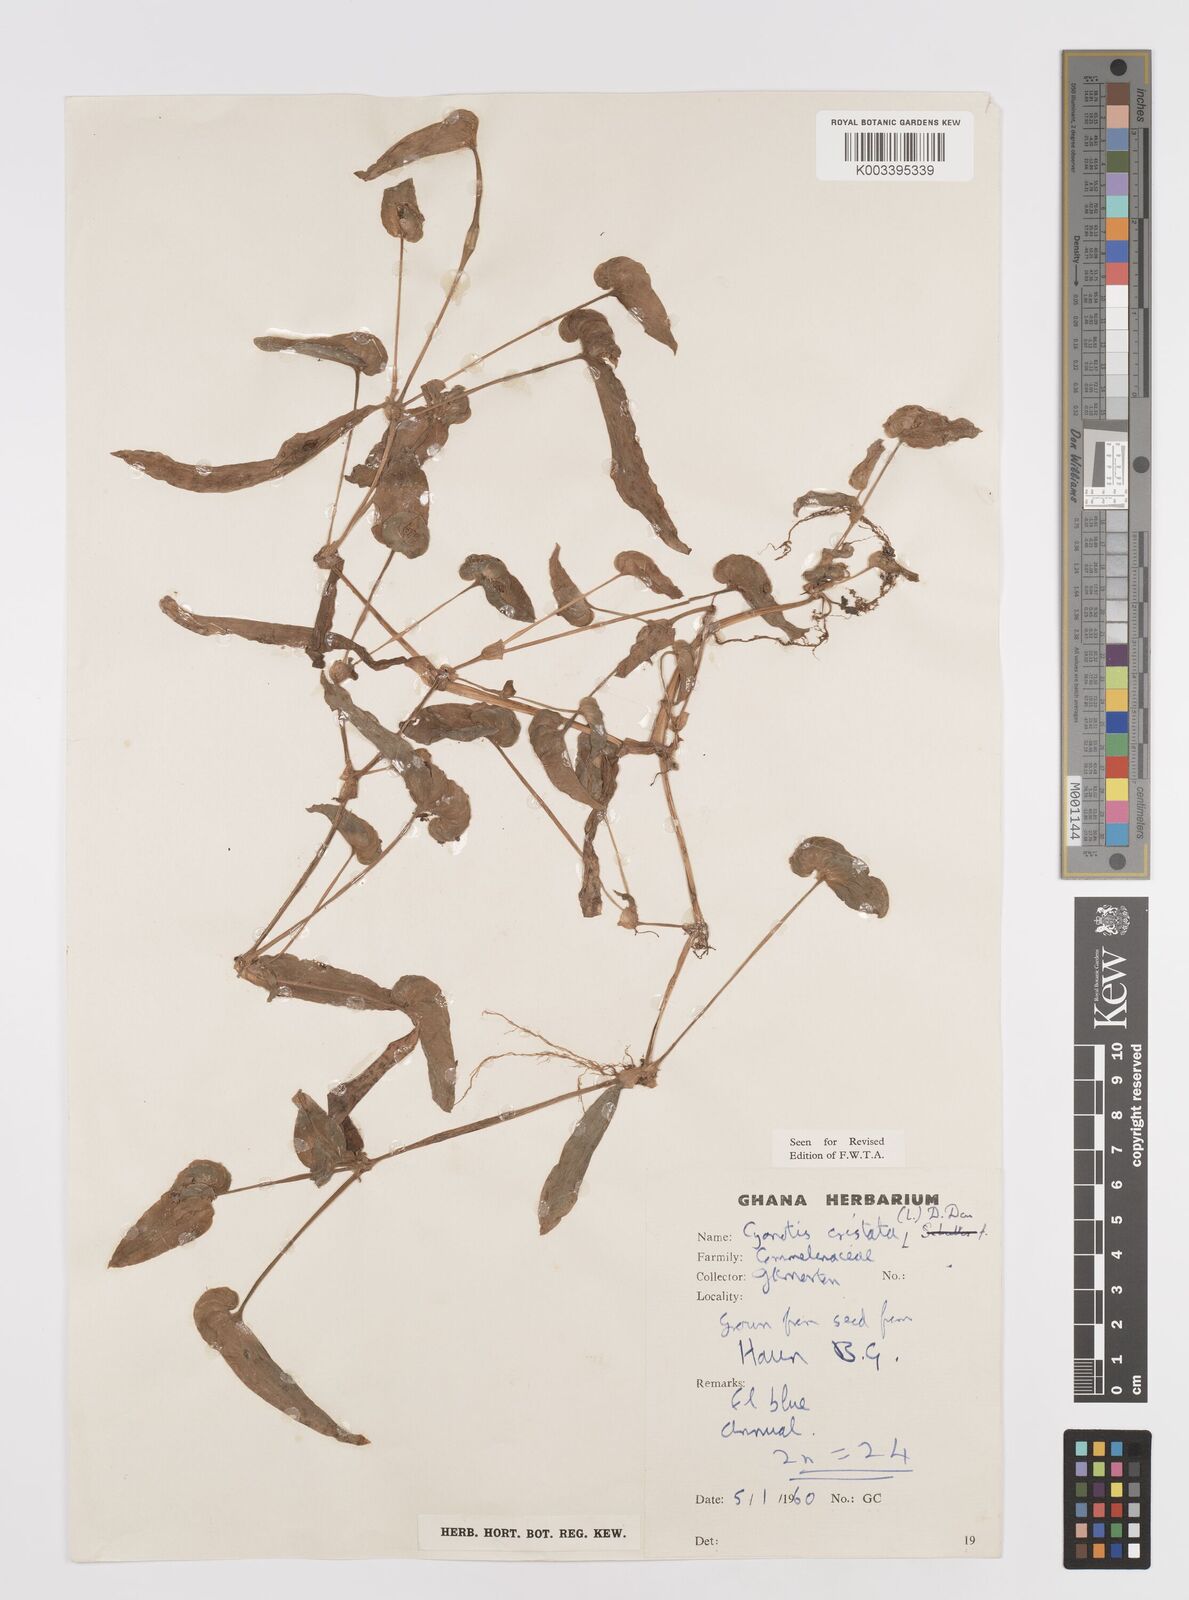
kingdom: Plantae
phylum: Tracheophyta
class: Liliopsida
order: Commelinales
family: Commelinaceae
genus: Cyanotis
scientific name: Cyanotis cristata
